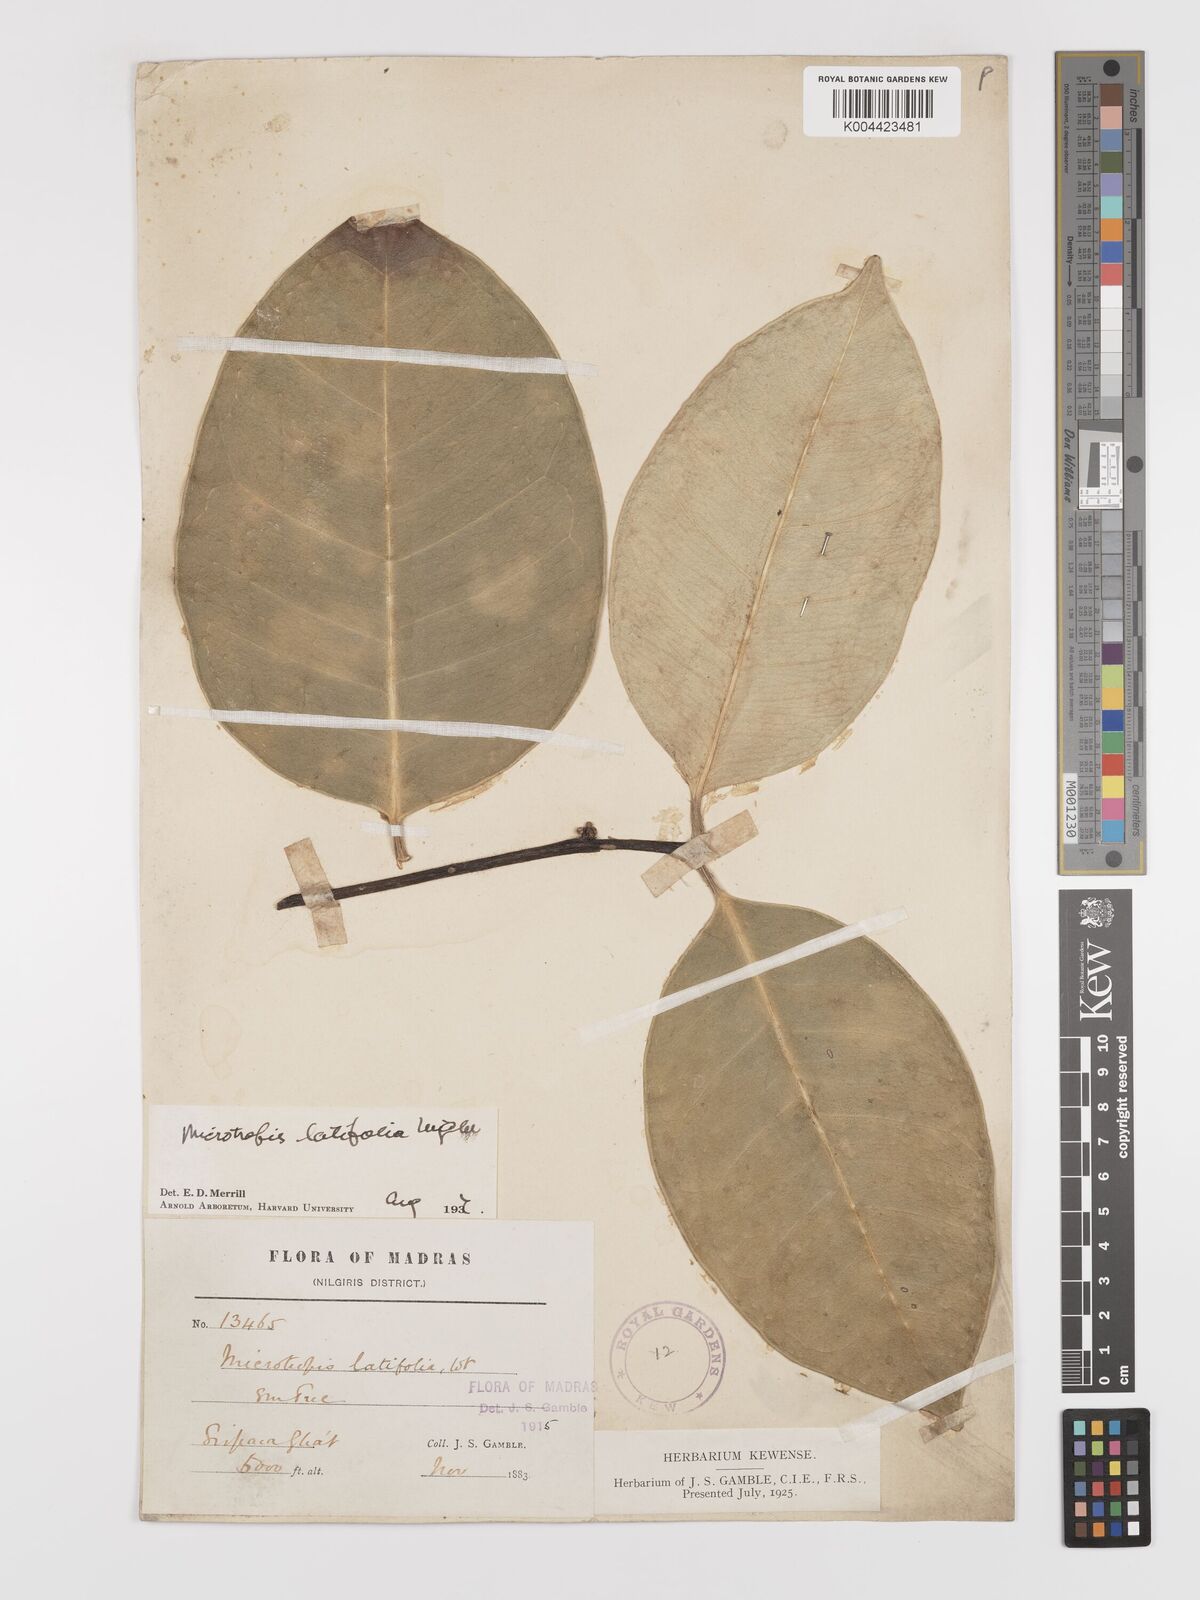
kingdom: Plantae
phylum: Tracheophyta
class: Magnoliopsida
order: Celastrales
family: Celastraceae
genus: Microtropis
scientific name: Microtropis latifolia
